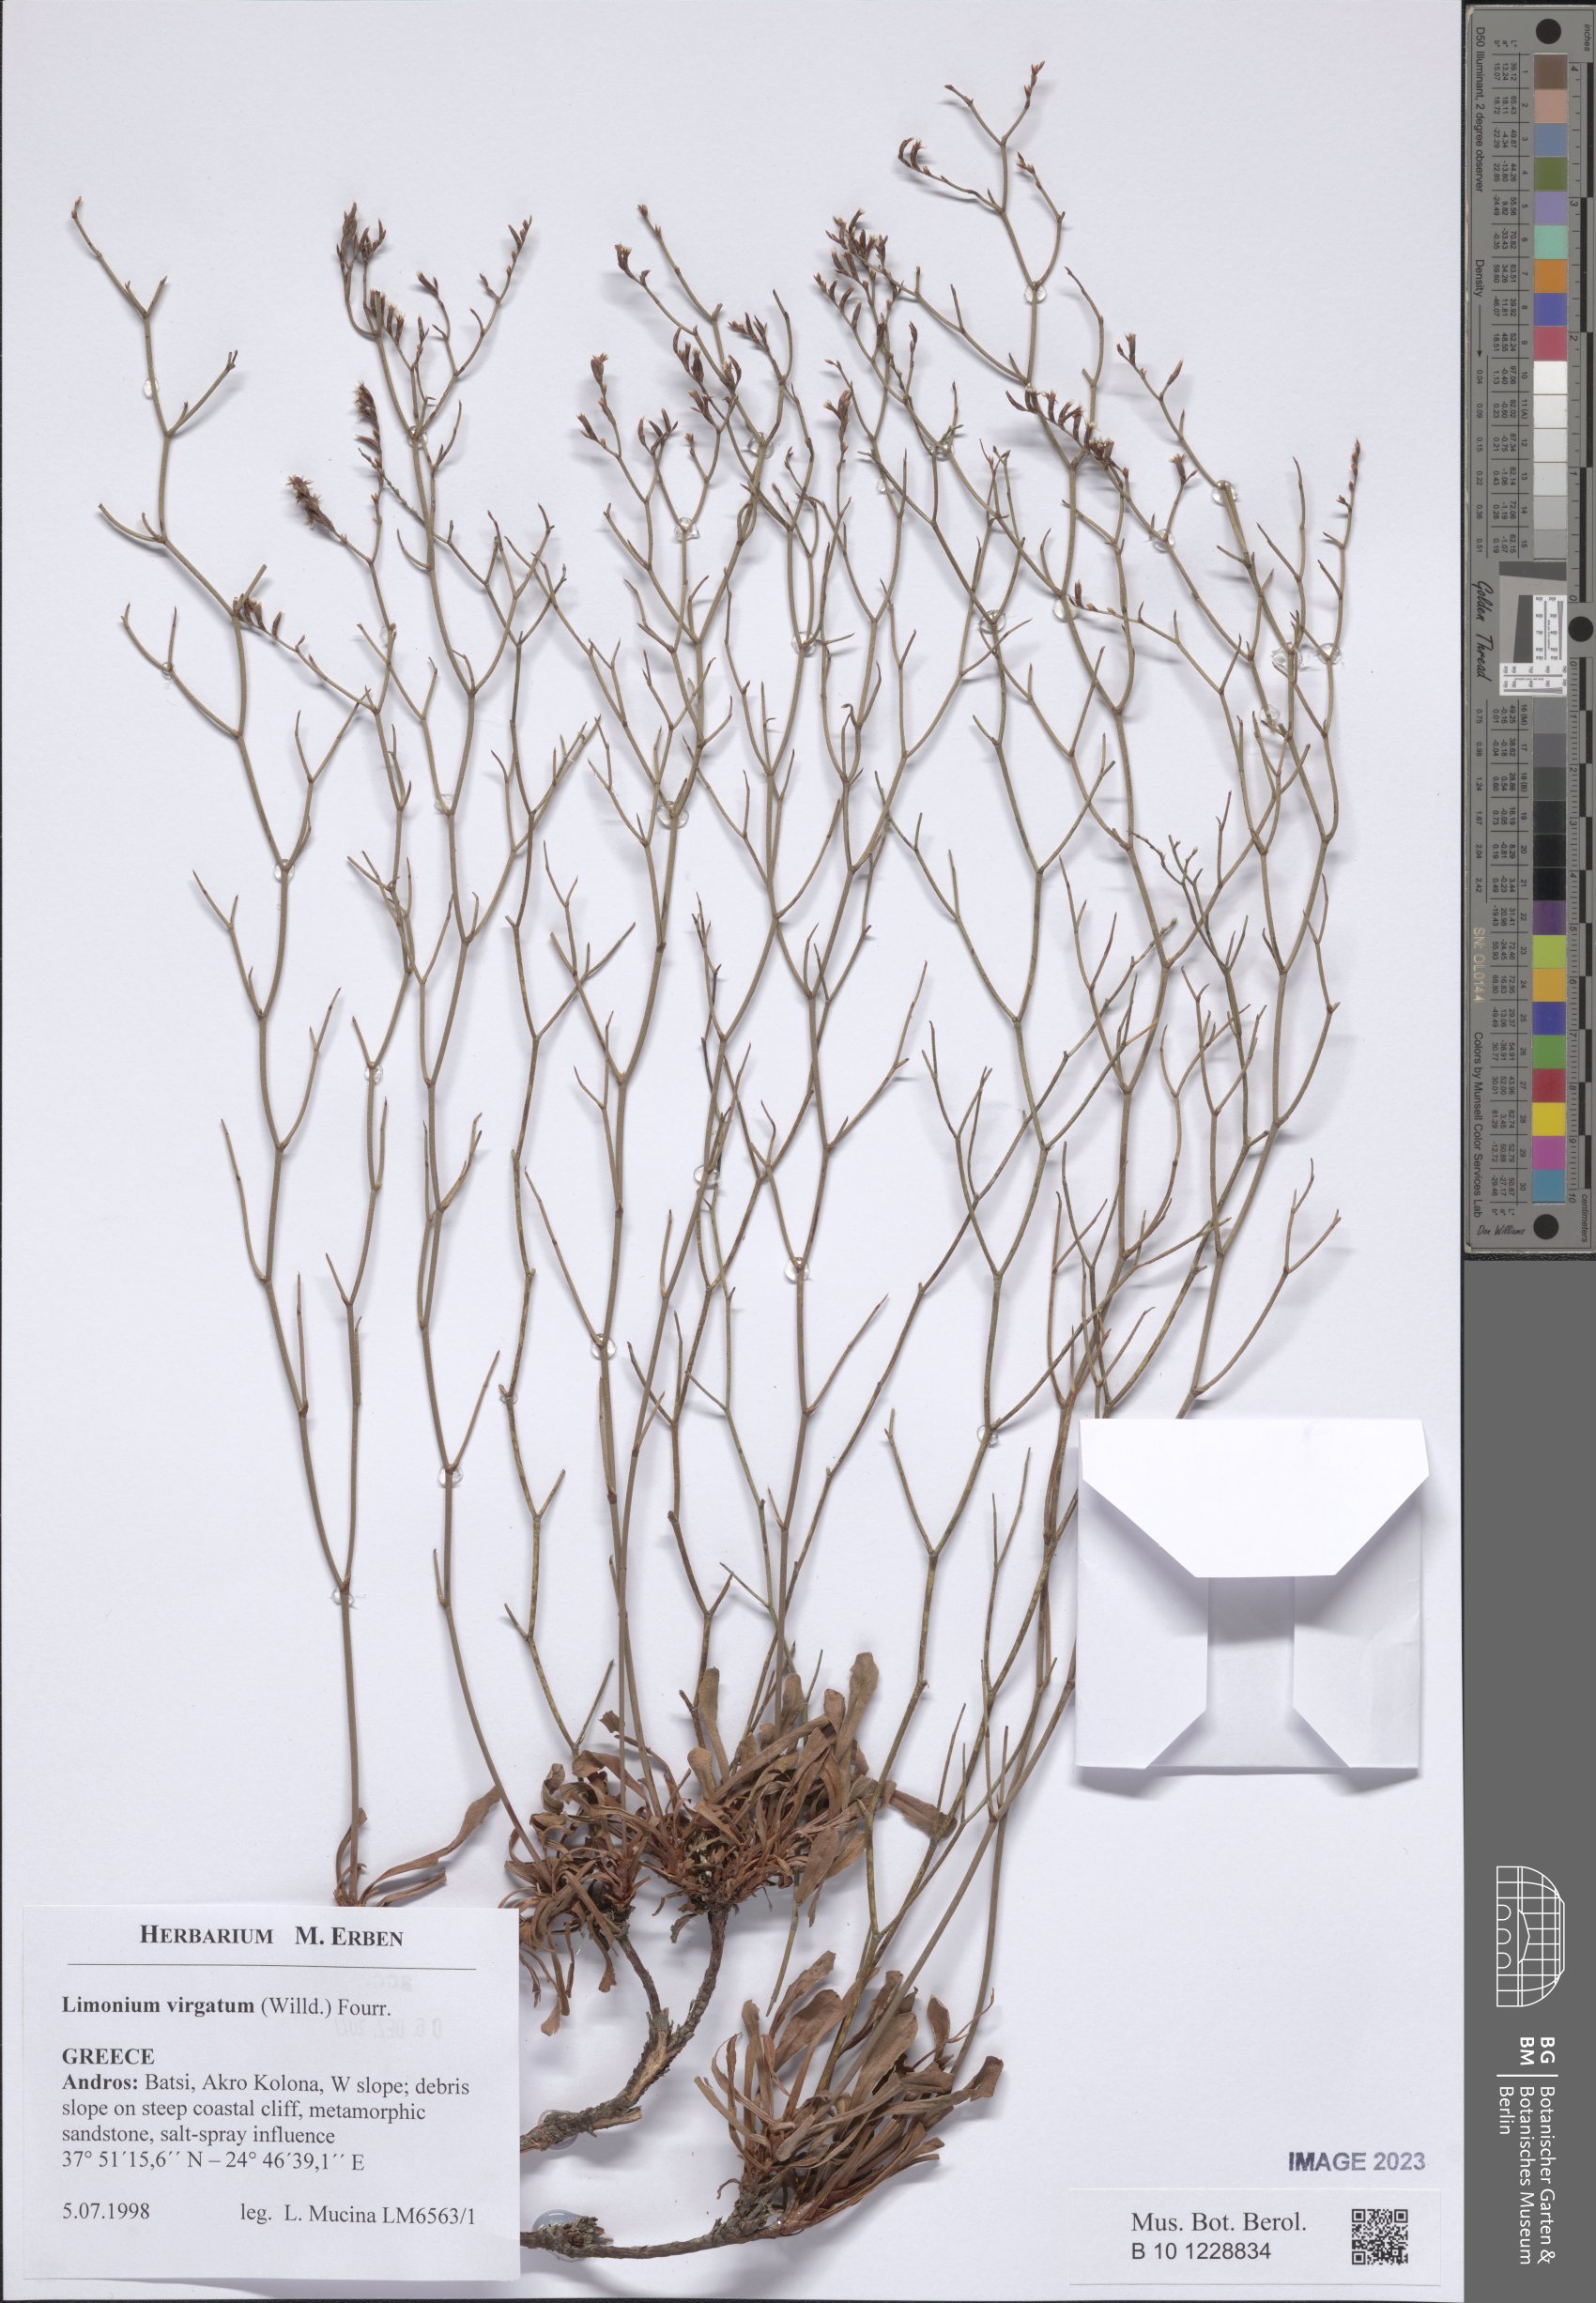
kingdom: Plantae
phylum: Tracheophyta
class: Magnoliopsida
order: Caryophyllales
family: Plumbaginaceae
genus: Limonium
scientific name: Limonium virgatum
